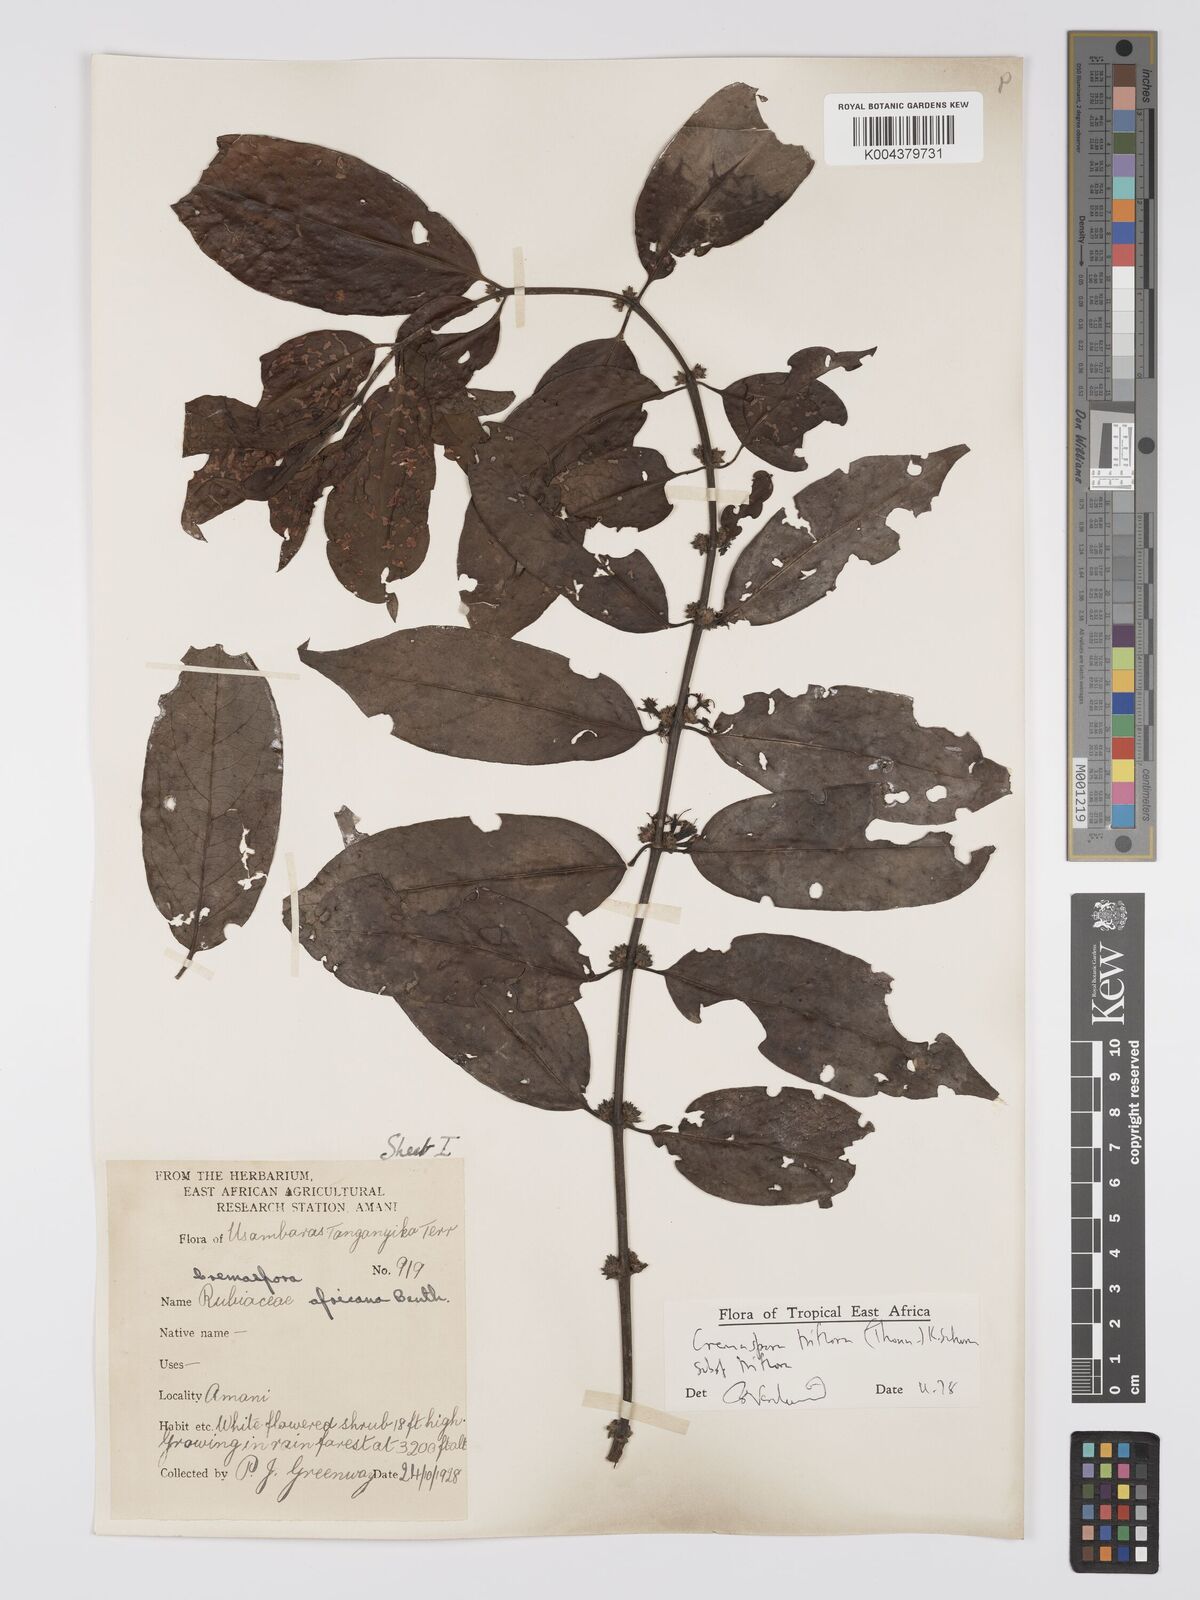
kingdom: Plantae
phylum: Tracheophyta
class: Magnoliopsida
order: Gentianales
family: Rubiaceae
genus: Cremaspora
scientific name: Cremaspora triflora
